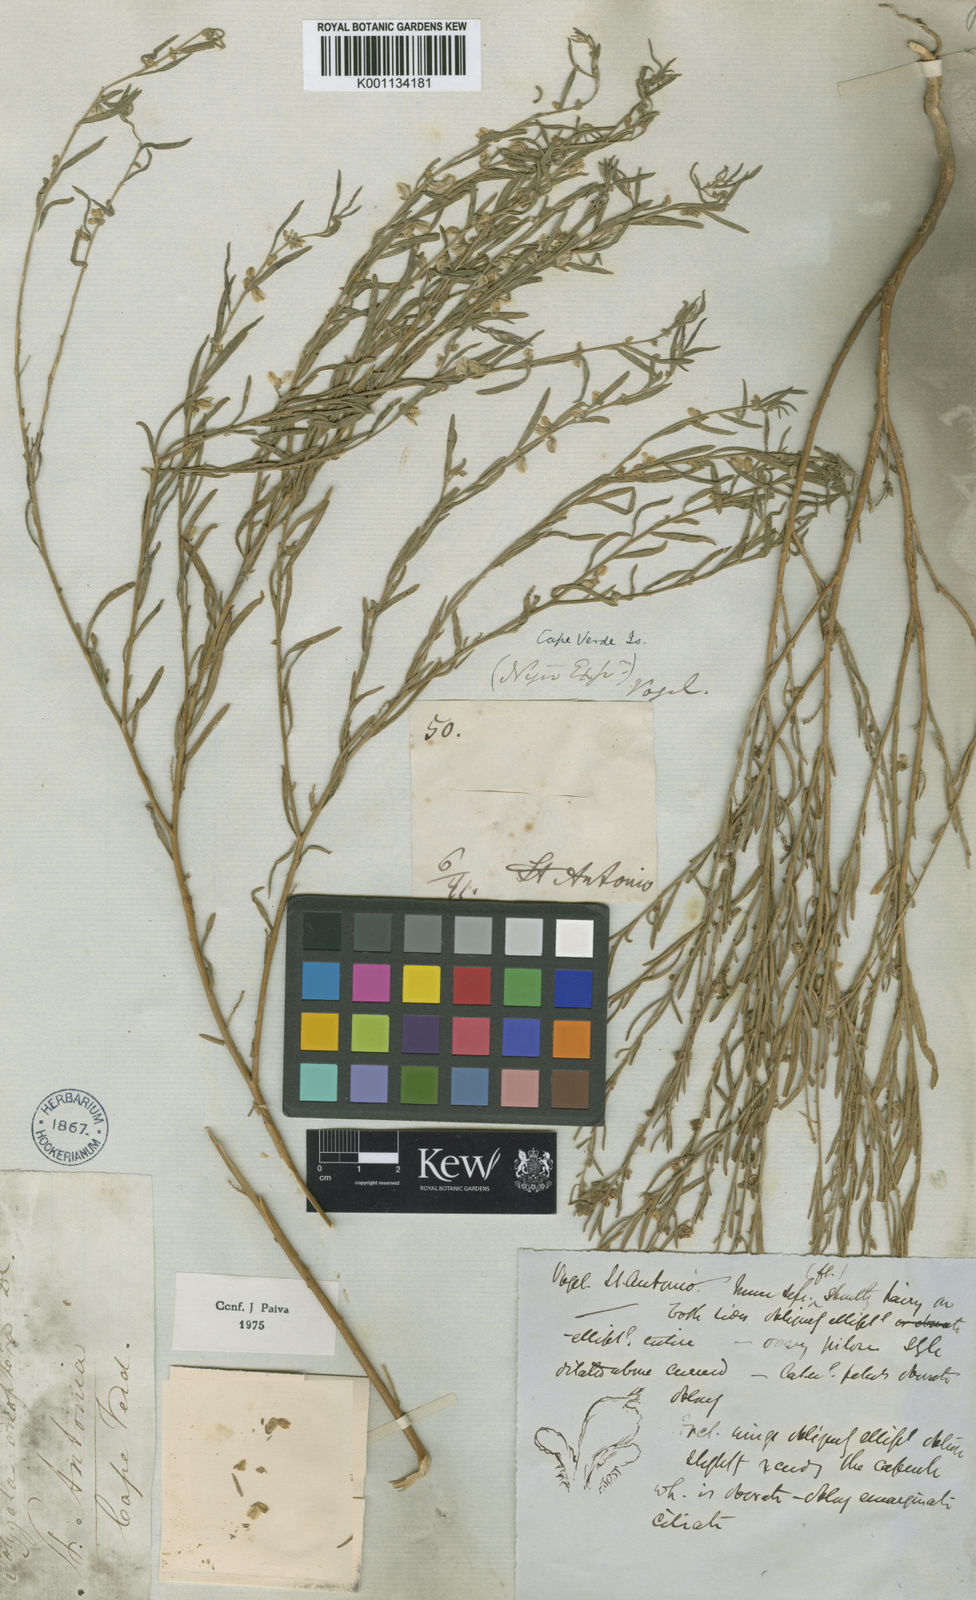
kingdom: Plantae
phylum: Tracheophyta
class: Magnoliopsida
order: Fabales
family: Polygalaceae
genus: Polygala
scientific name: Polygala erioptera
